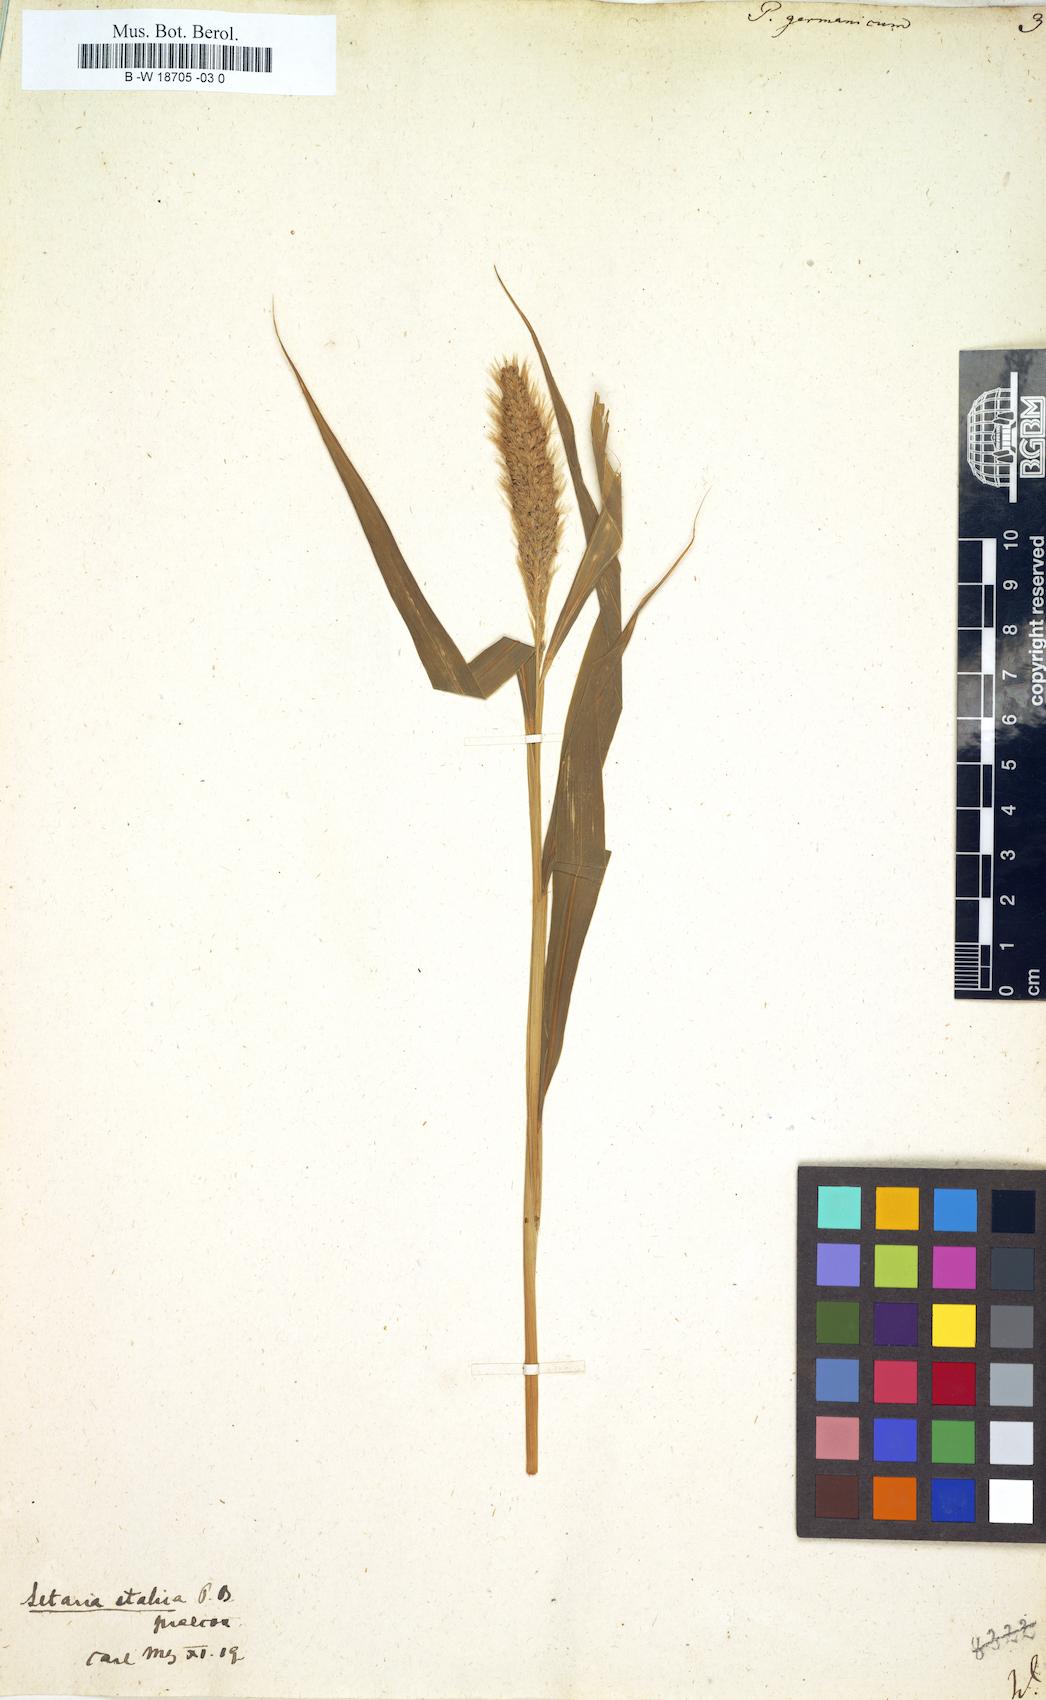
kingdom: Plantae
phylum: Tracheophyta
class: Liliopsida
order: Poales
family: Poaceae
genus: Setaria
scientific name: Setaria italica
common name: Foxtail bristle-grass
